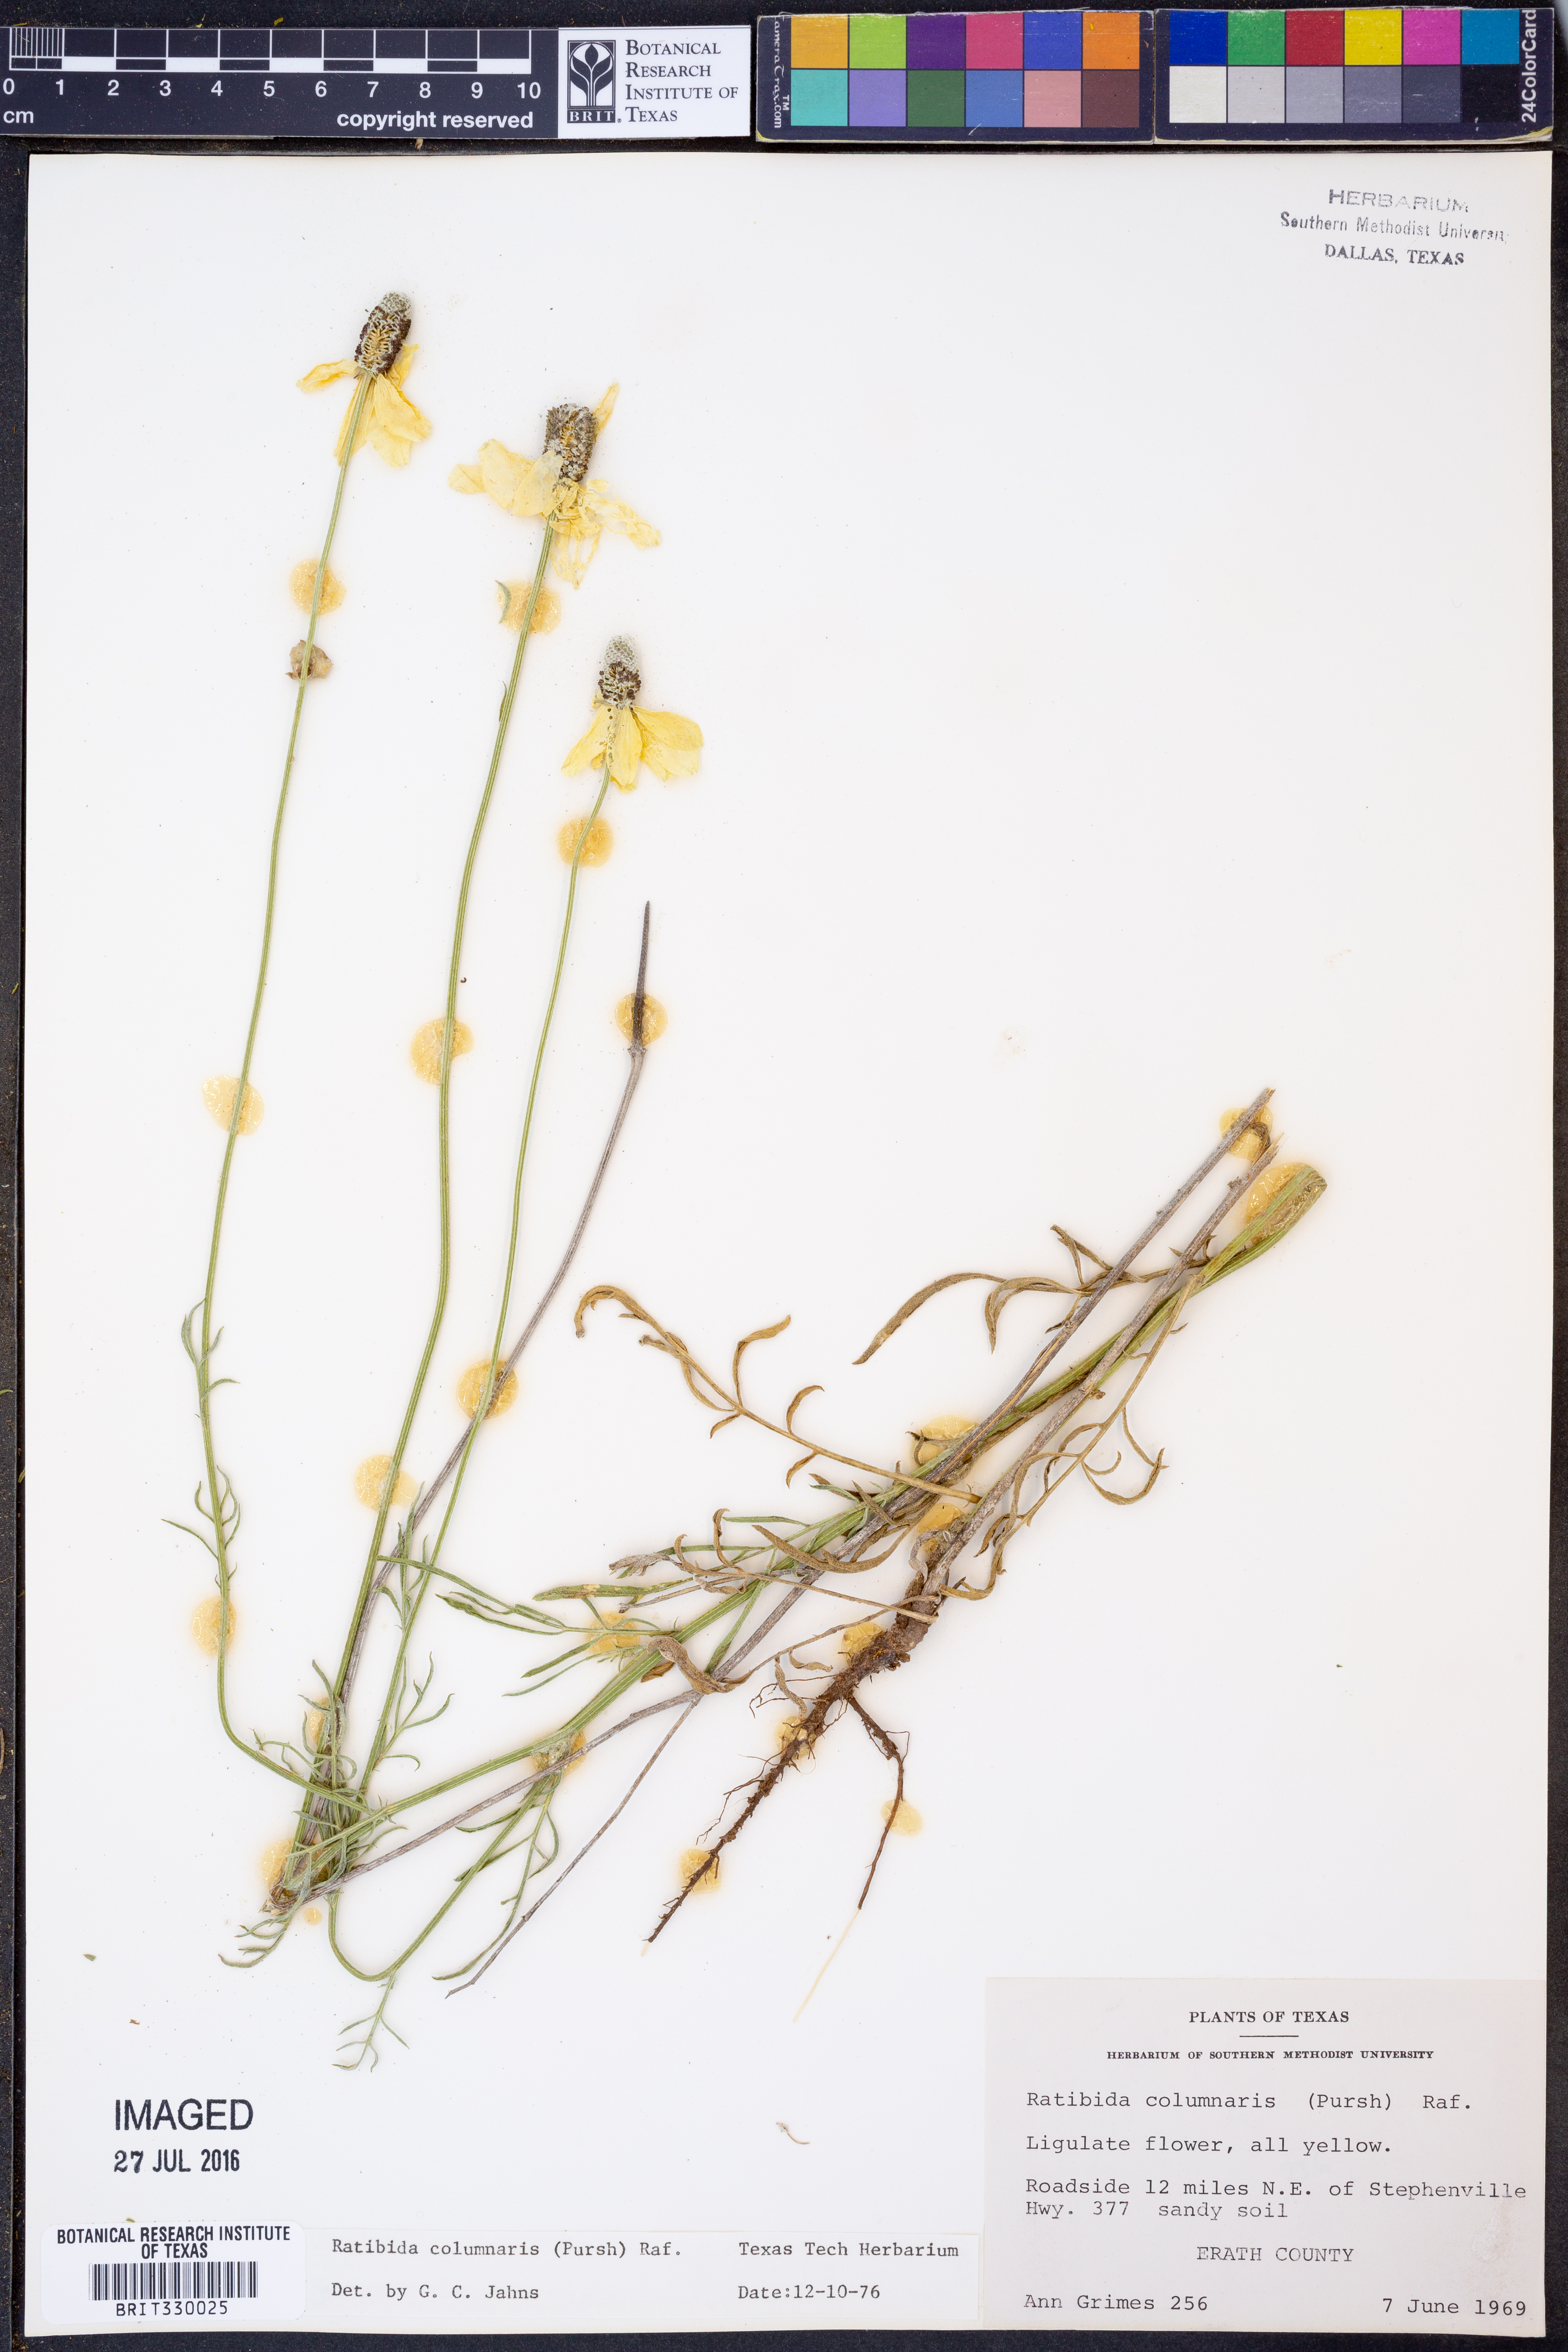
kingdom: Plantae
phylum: Tracheophyta
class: Magnoliopsida
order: Asterales
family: Asteraceae
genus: Ratibida
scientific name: Ratibida columnifera
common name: Prairie coneflower
